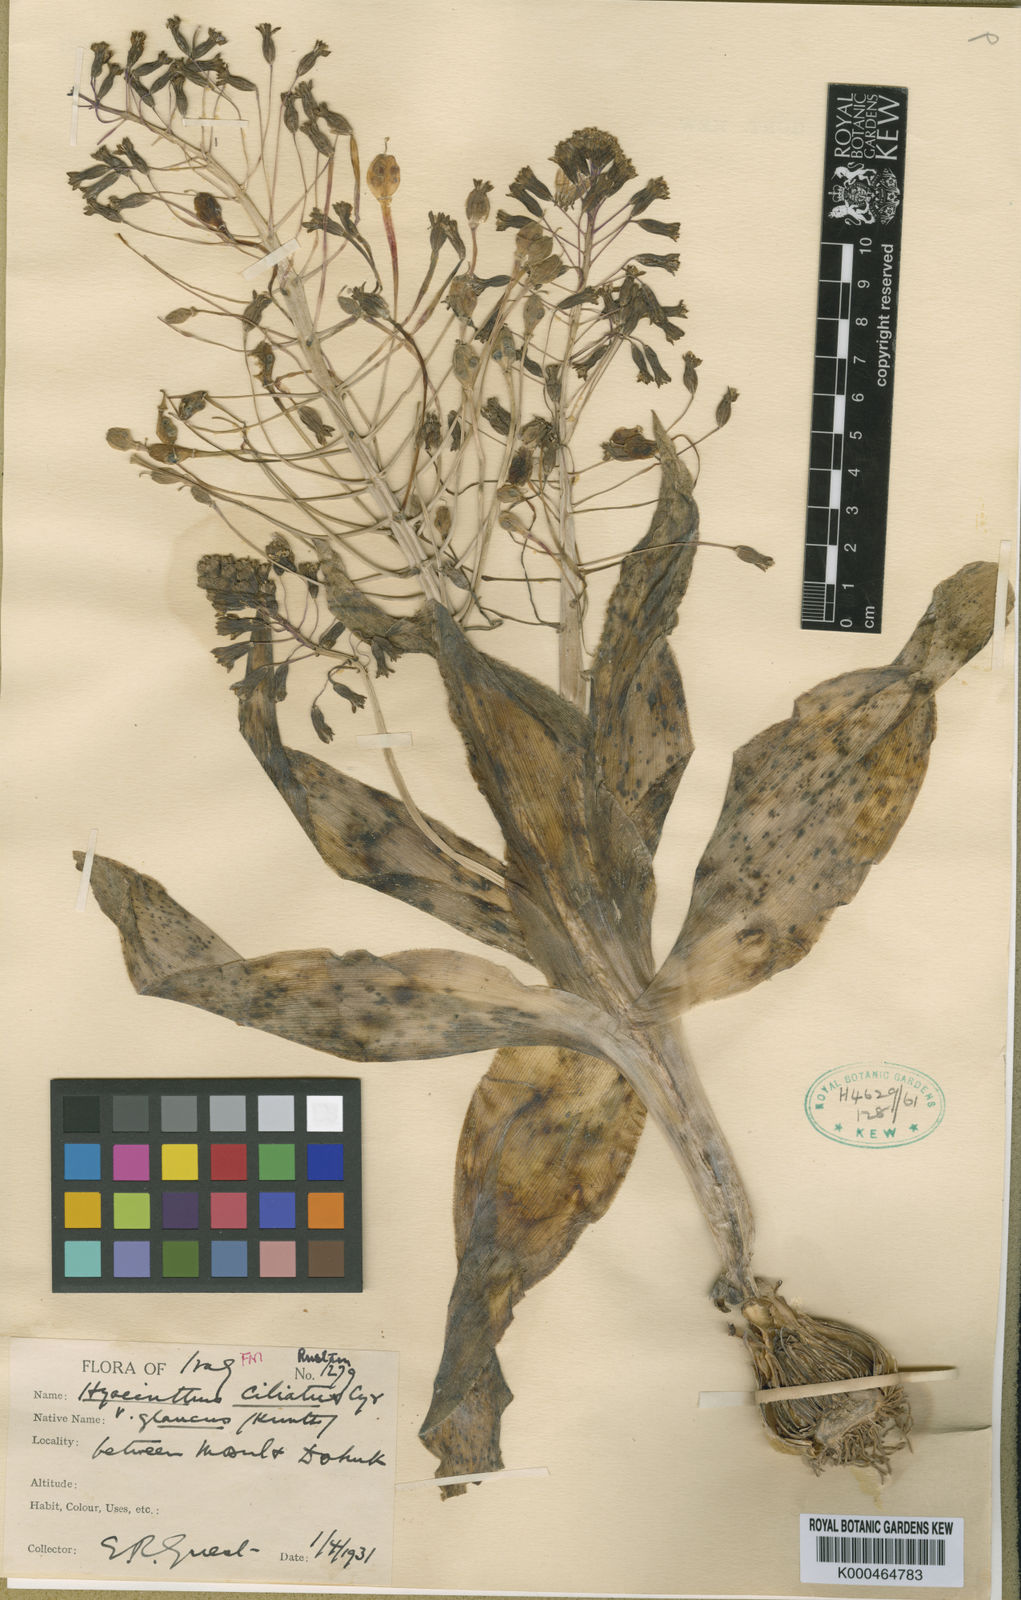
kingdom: Plantae
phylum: Tracheophyta
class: Liliopsida
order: Asparagales
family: Asparagaceae
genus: Bellevalia
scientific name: Bellevalia glauca
